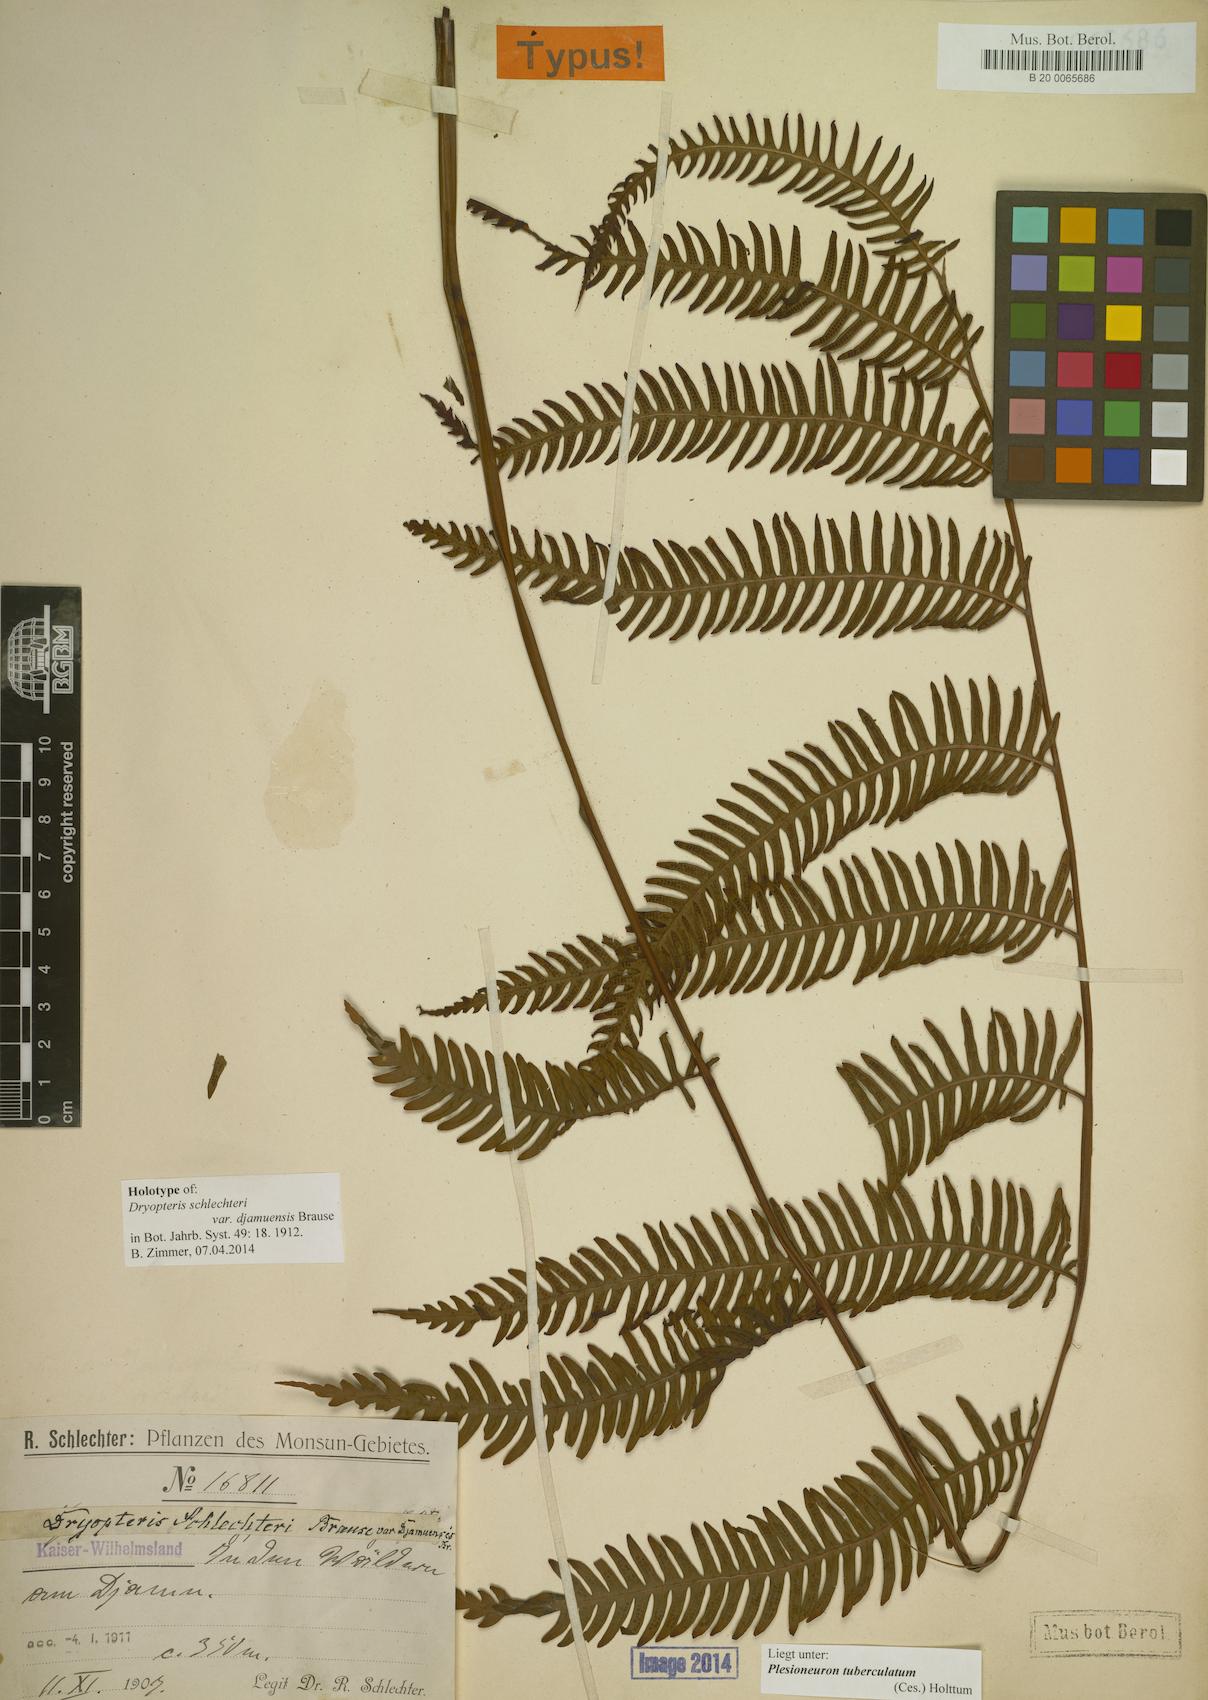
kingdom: Plantae
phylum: Tracheophyta
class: Polypodiopsida
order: Polypodiales
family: Thelypteridaceae
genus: Plesioneuron
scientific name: Plesioneuron tuberculatum
